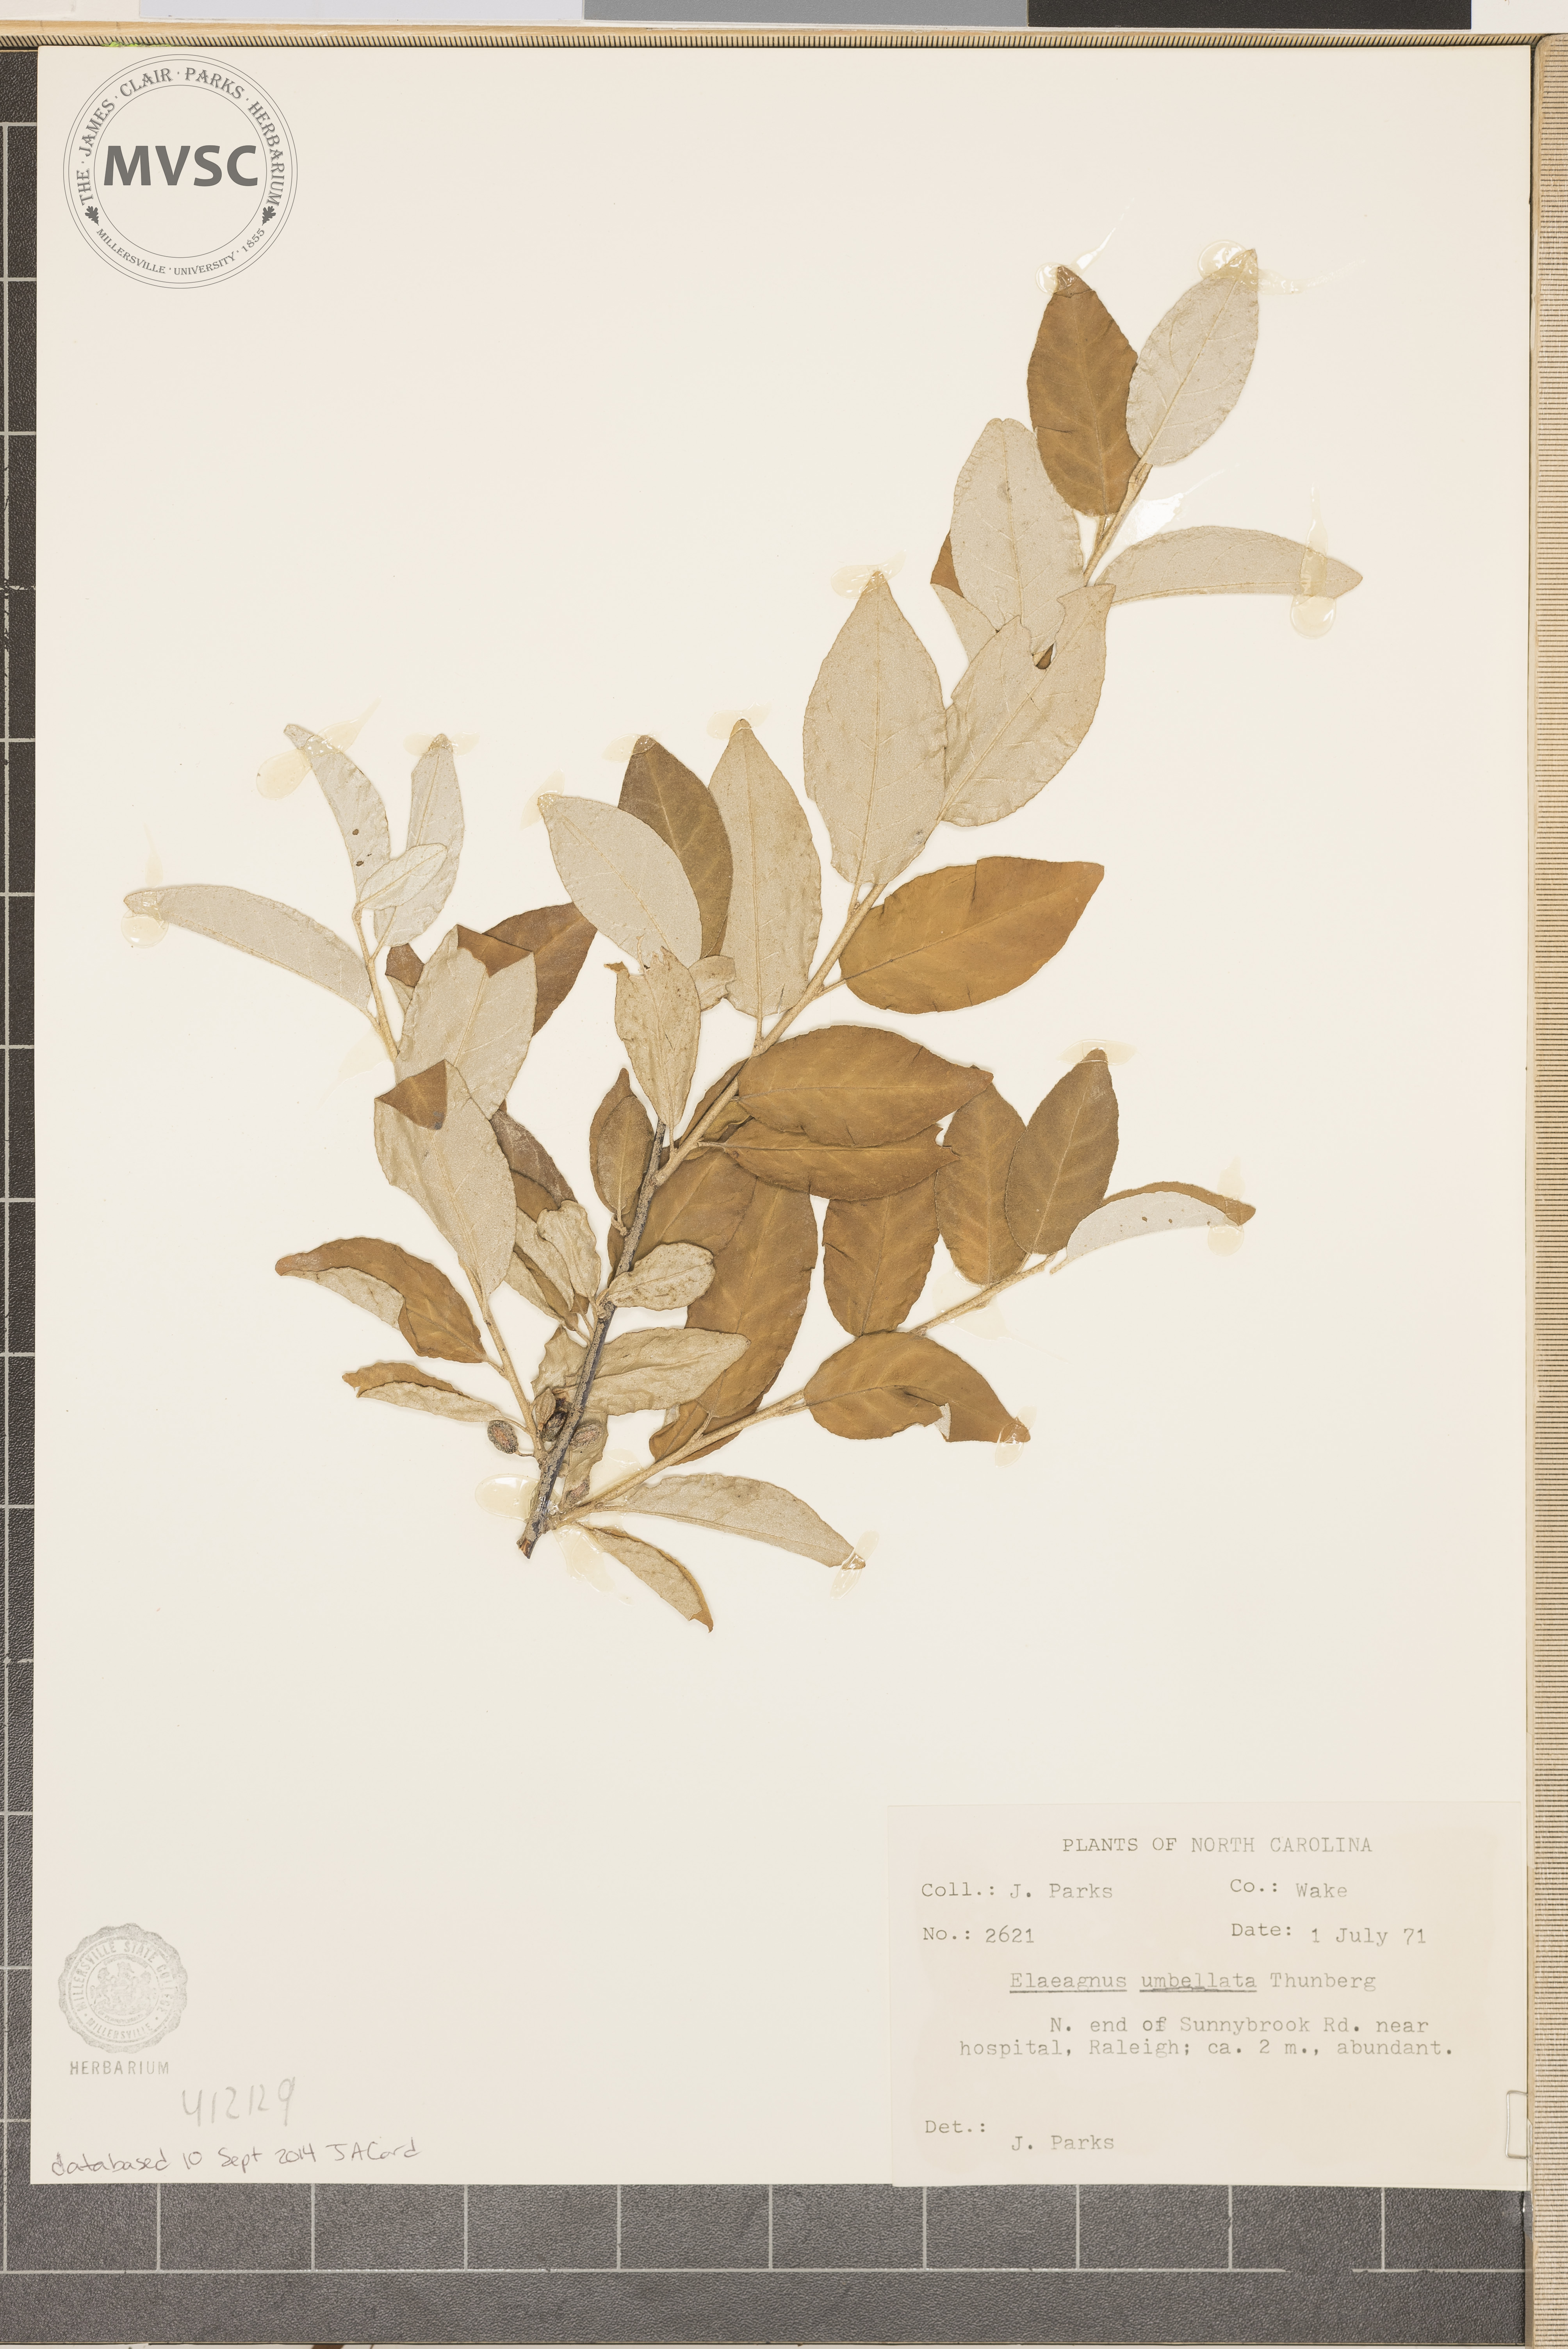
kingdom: Plantae
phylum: Tracheophyta
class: Magnoliopsida
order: Rosales
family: Elaeagnaceae
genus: Elaeagnus
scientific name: Elaeagnus umbellata
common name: Autumn olive
